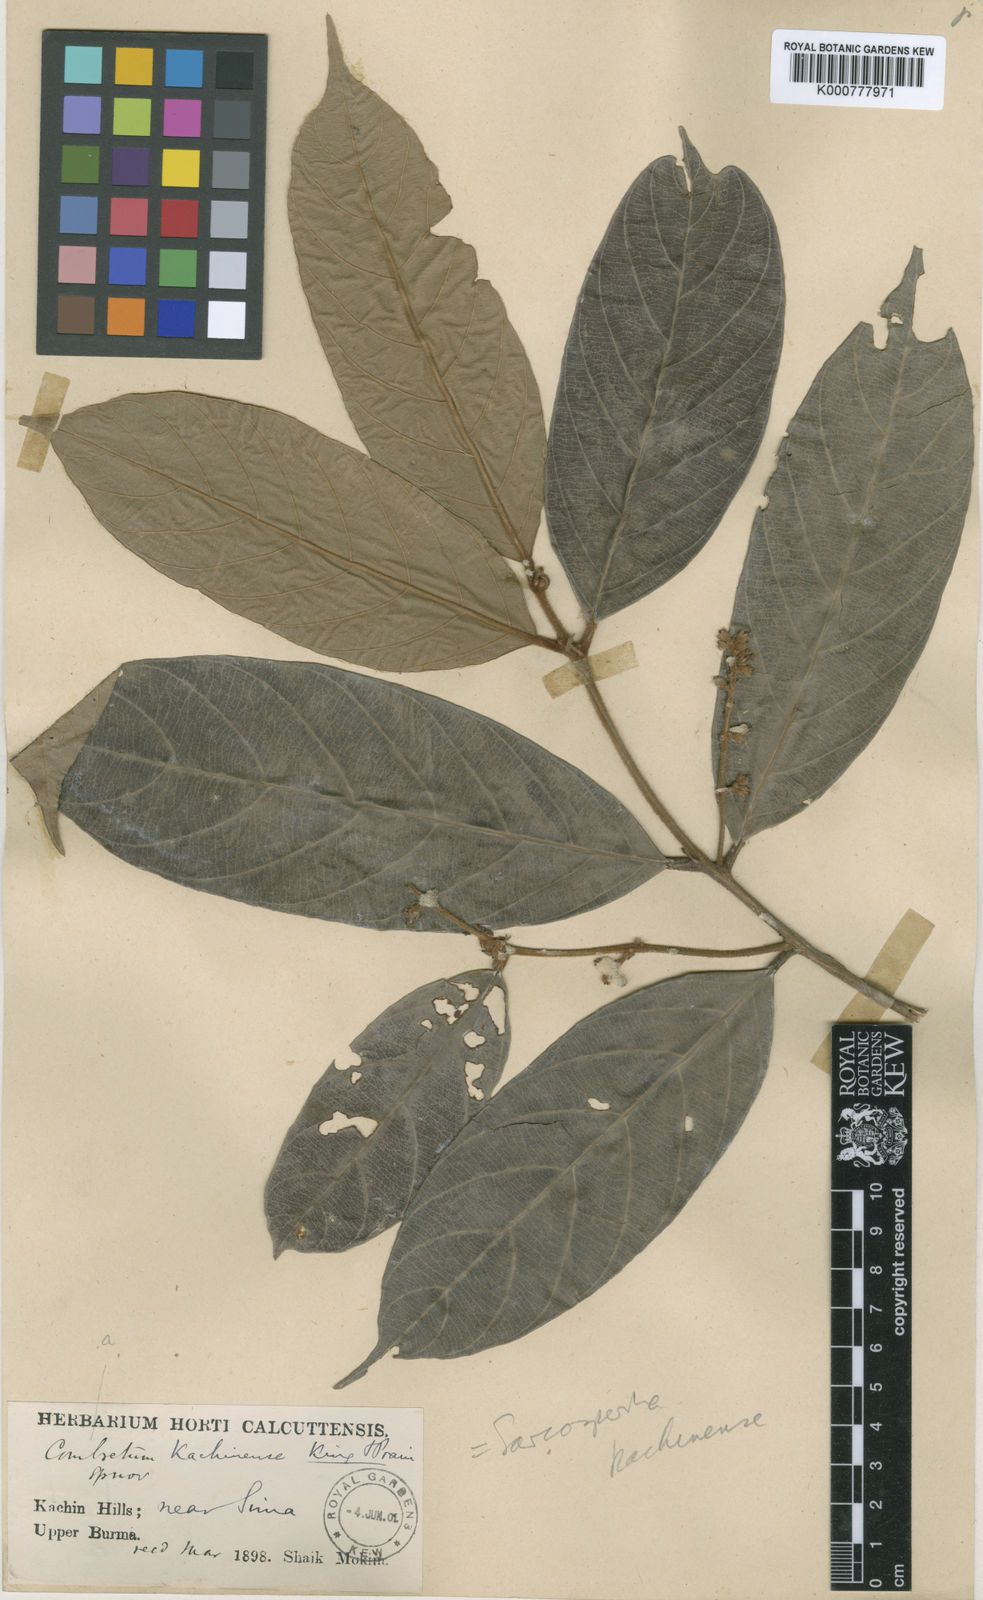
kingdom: Plantae
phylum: Tracheophyta
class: Magnoliopsida
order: Ericales
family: Sapotaceae
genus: Sarcosperma
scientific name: Sarcosperma kachinense
